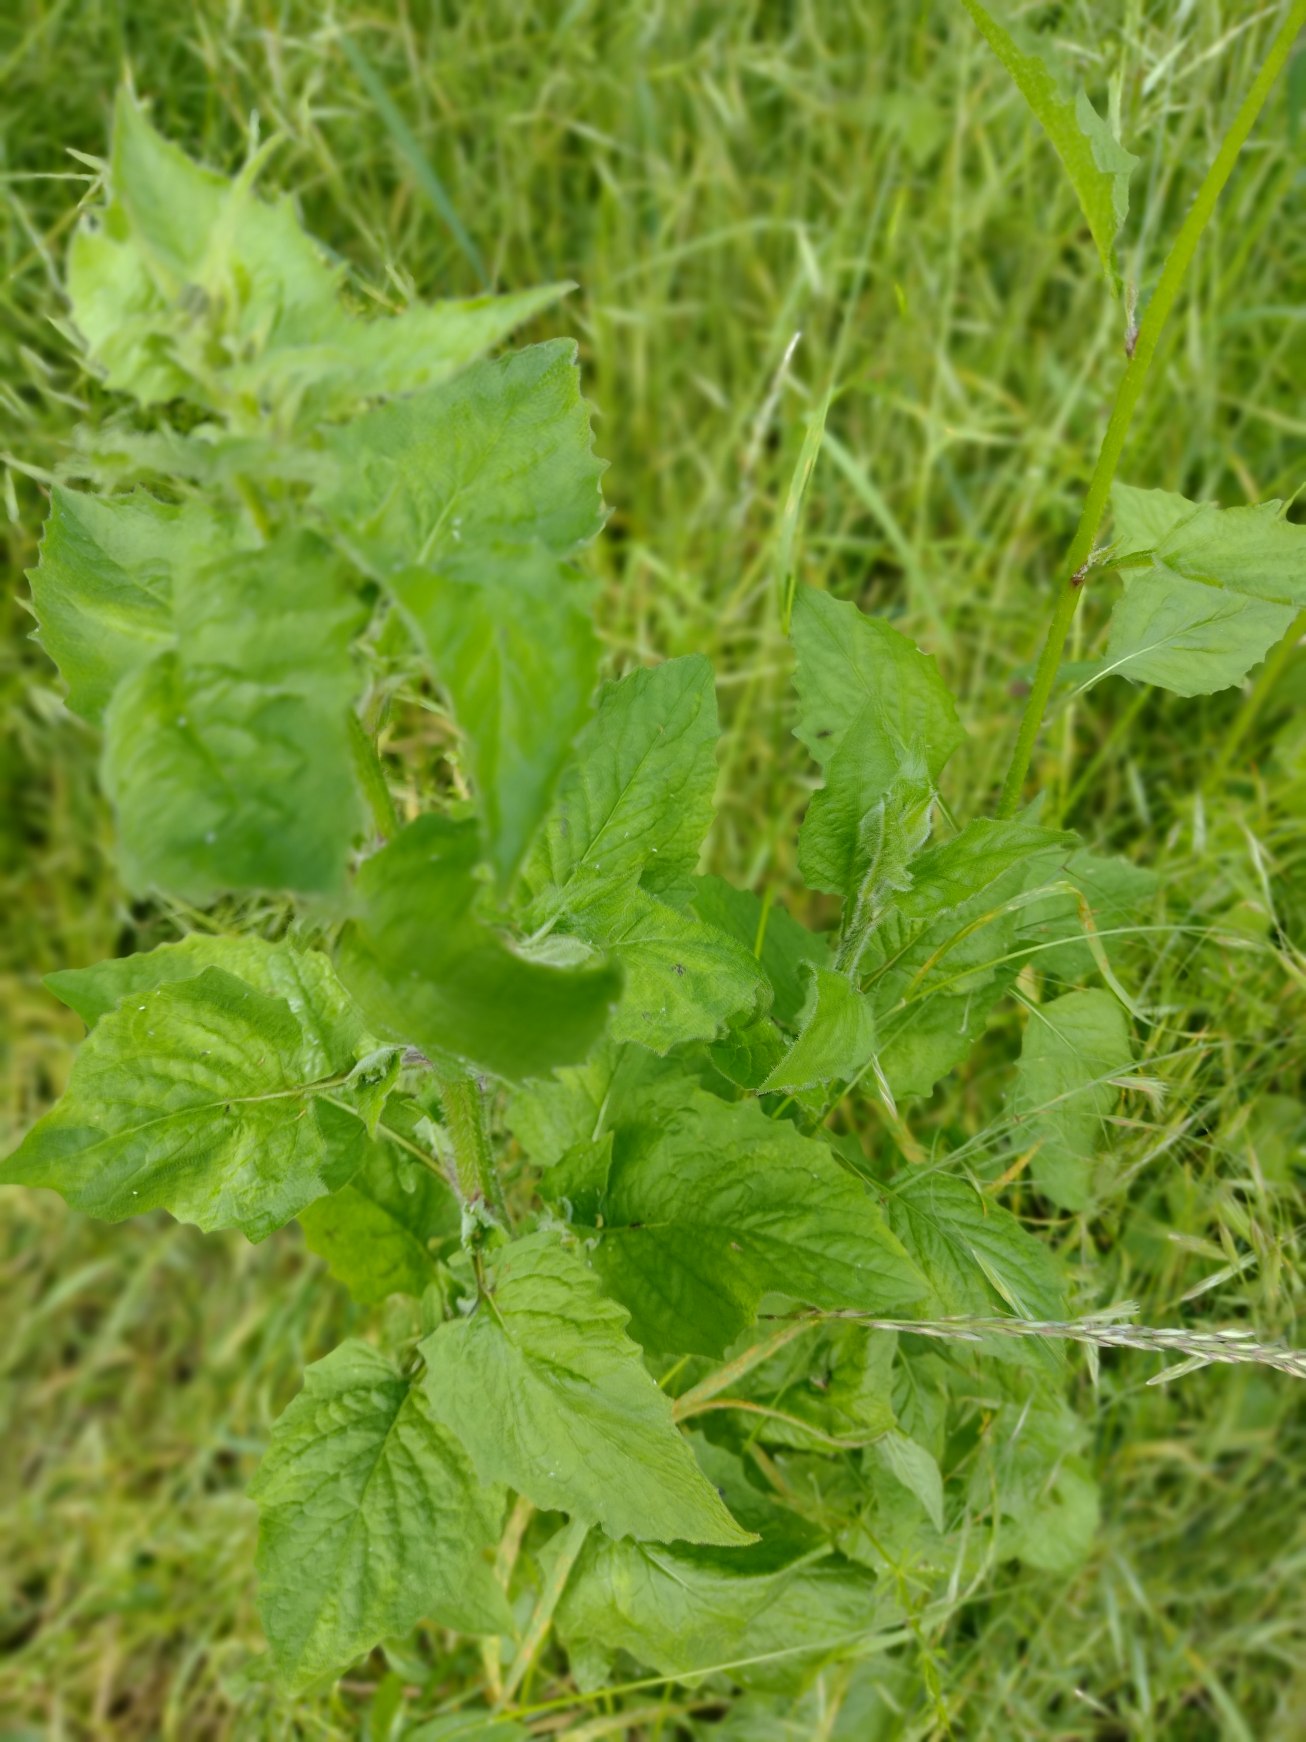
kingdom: Plantae
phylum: Tracheophyta
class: Magnoliopsida
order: Fabales
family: Fabaceae
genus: Vicia
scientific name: Vicia sativa
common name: Foder-vikke
